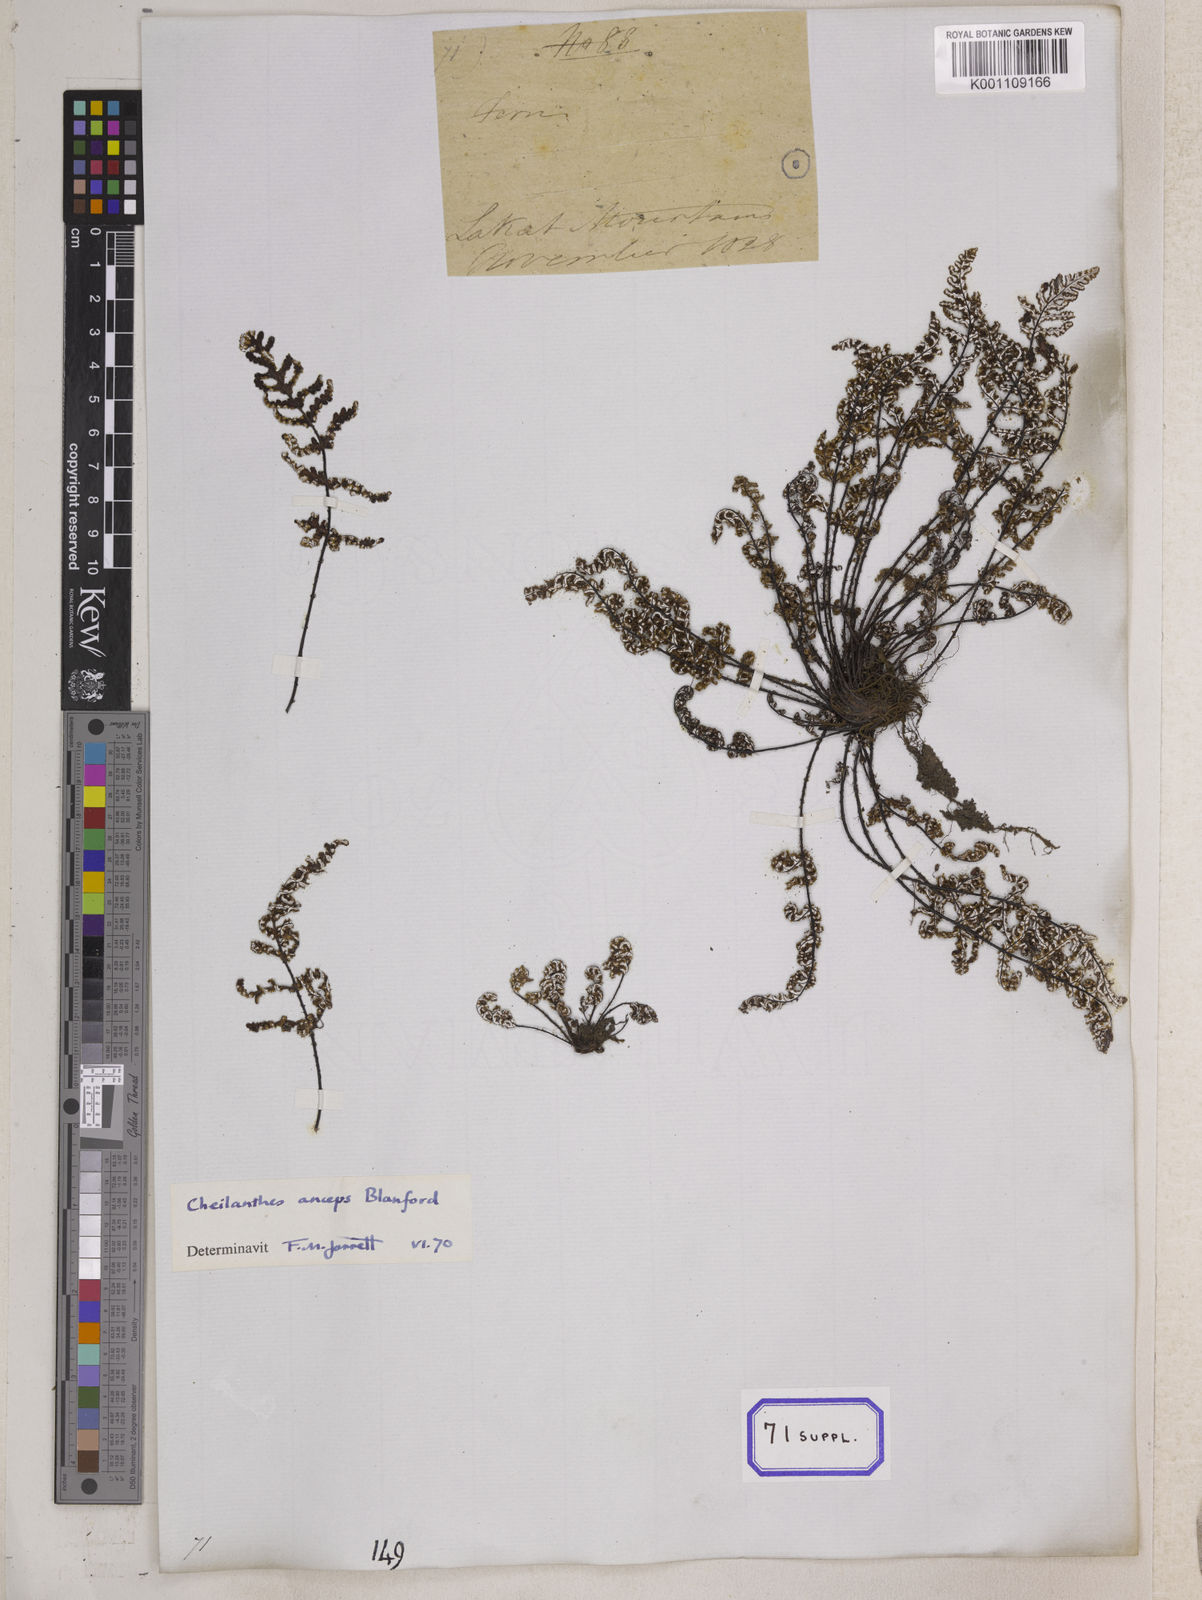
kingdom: Plantae
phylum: Tracheophyta
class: Polypodiopsida
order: Polypodiales
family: Pteridaceae
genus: Argyrochosma
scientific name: Argyrochosma dealbata
